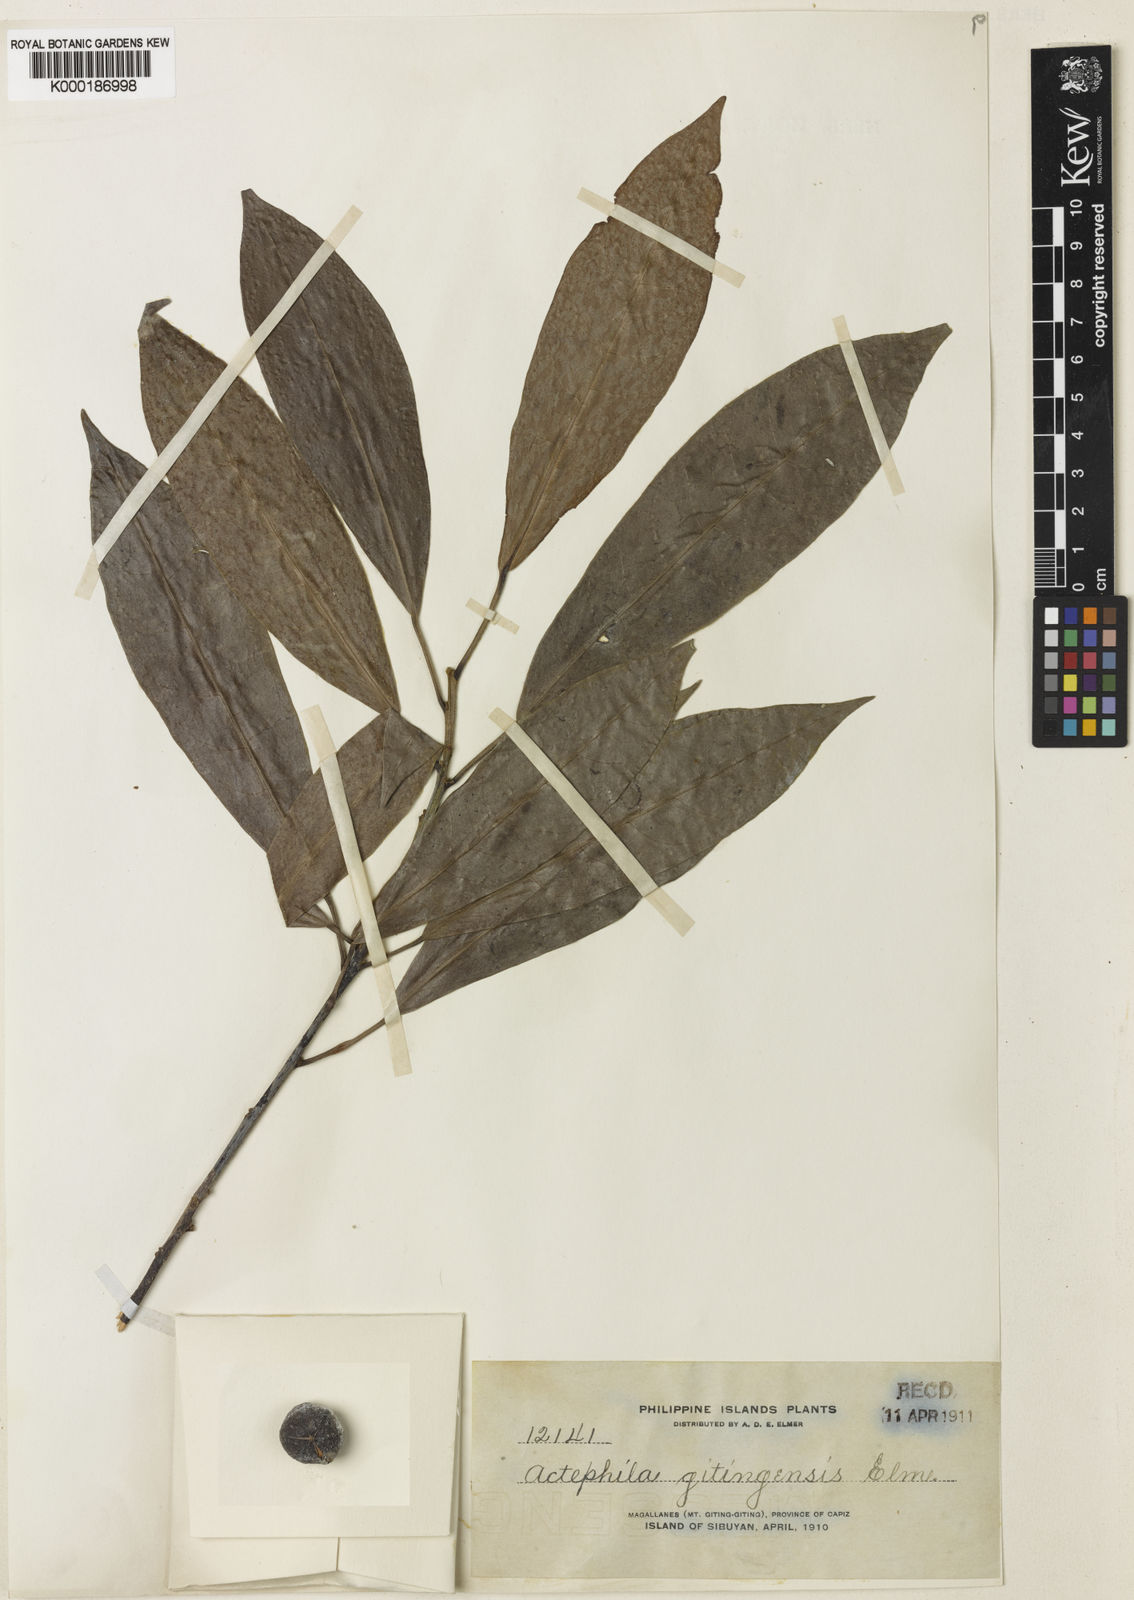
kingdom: Plantae
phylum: Tracheophyta
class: Magnoliopsida
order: Malpighiales
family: Phyllanthaceae
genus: Actephila
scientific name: Actephila
